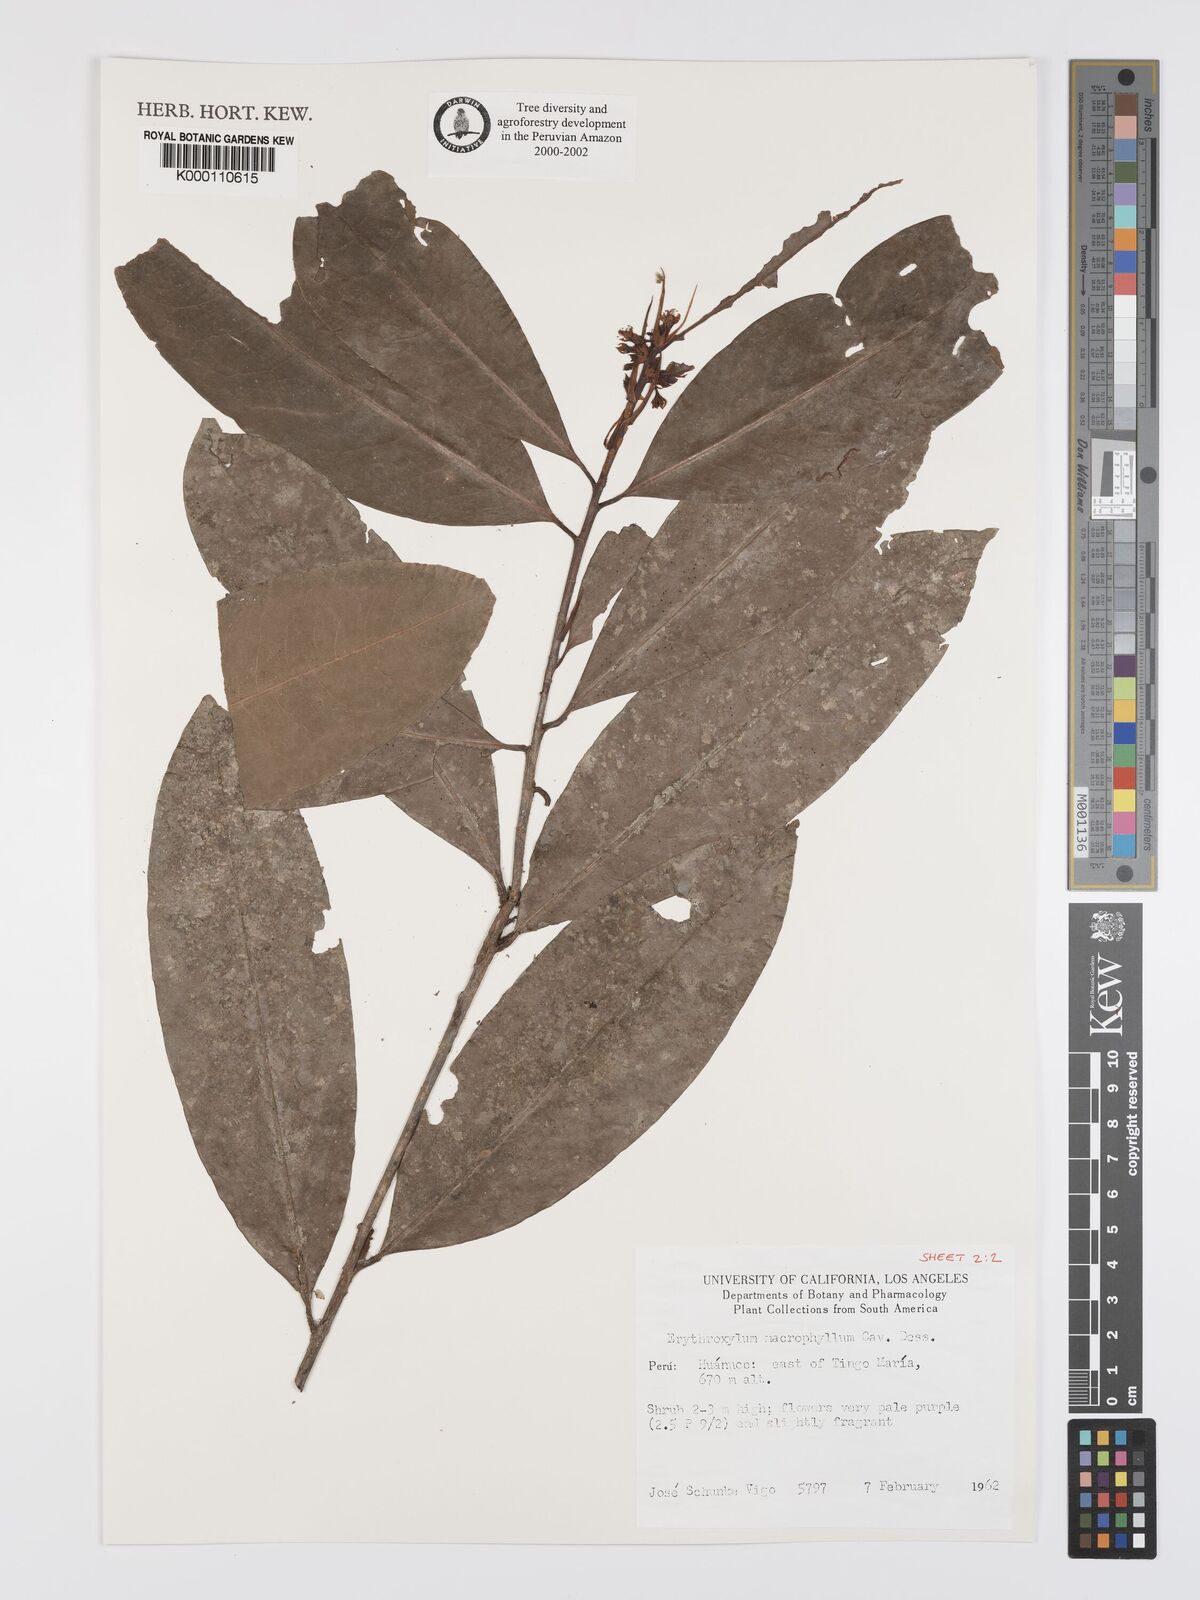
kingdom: Plantae
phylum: Tracheophyta
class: Magnoliopsida
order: Malpighiales
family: Erythroxylaceae
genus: Erythroxylum
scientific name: Erythroxylum
